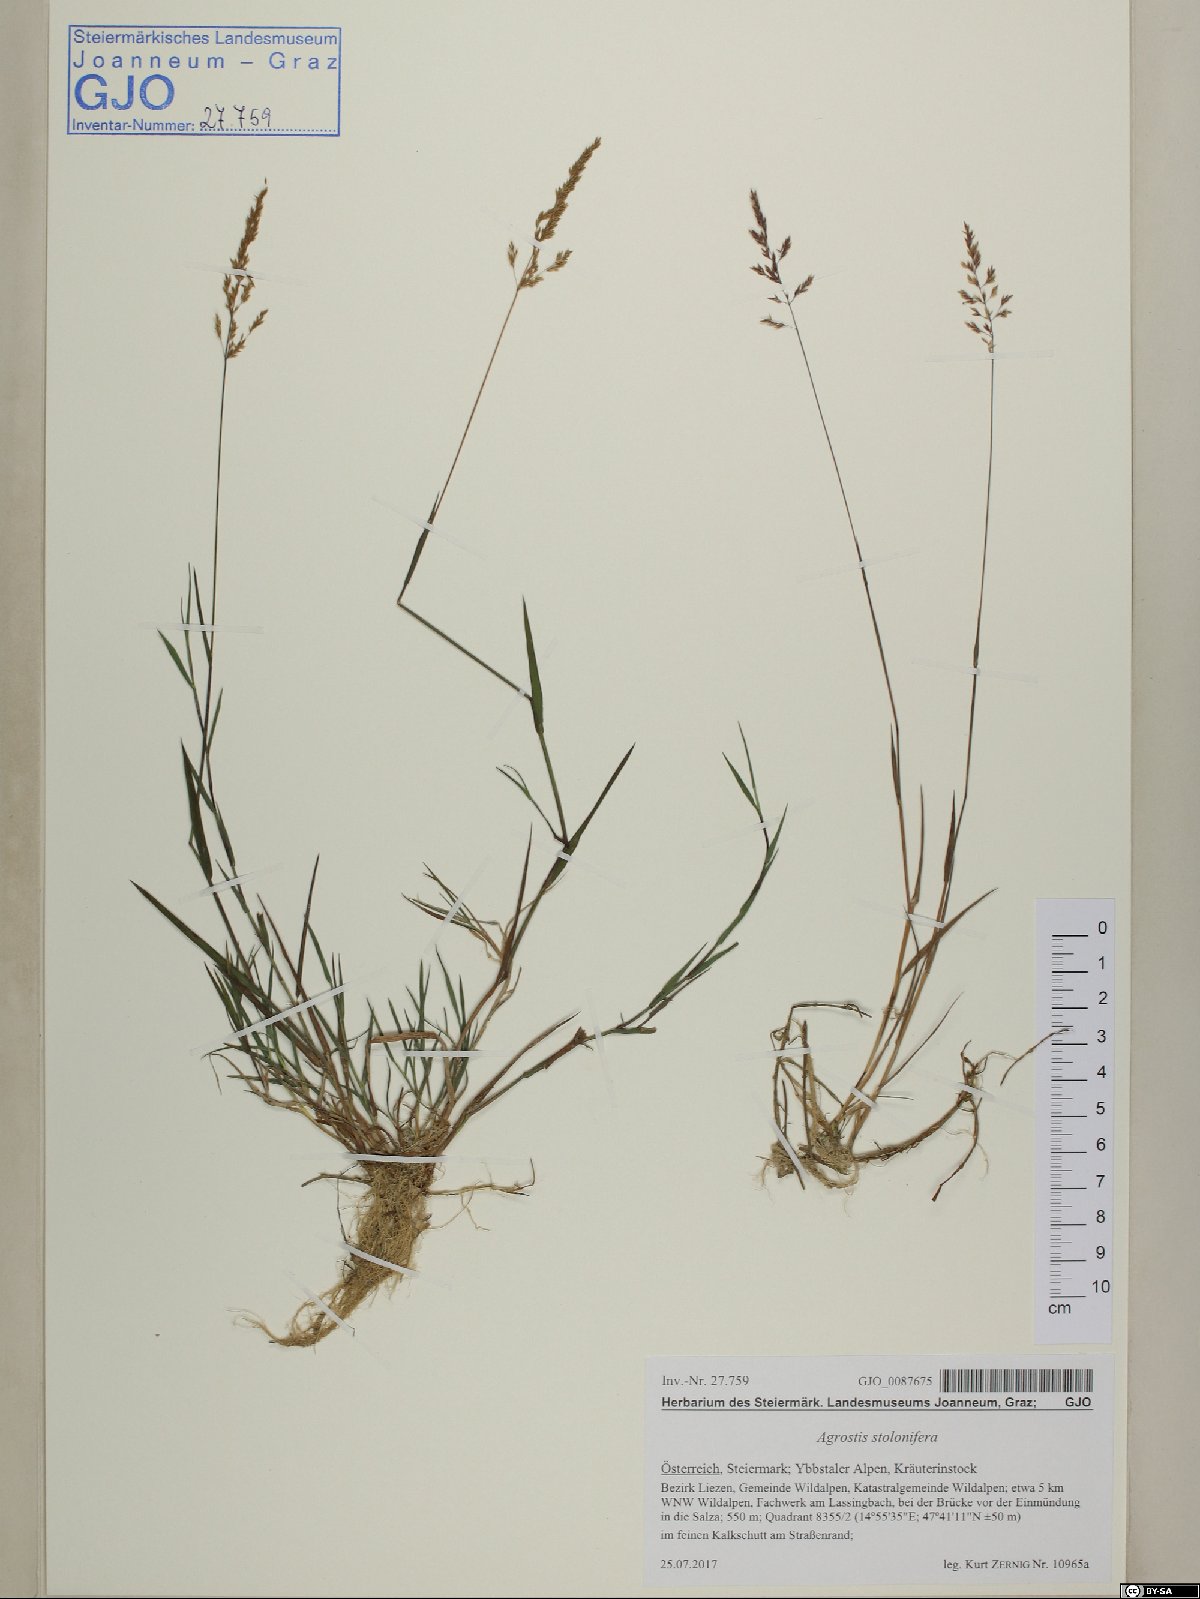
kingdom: Plantae
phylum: Tracheophyta
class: Liliopsida
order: Poales
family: Poaceae
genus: Agrostis
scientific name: Agrostis stolonifera
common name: Creeping bentgrass
